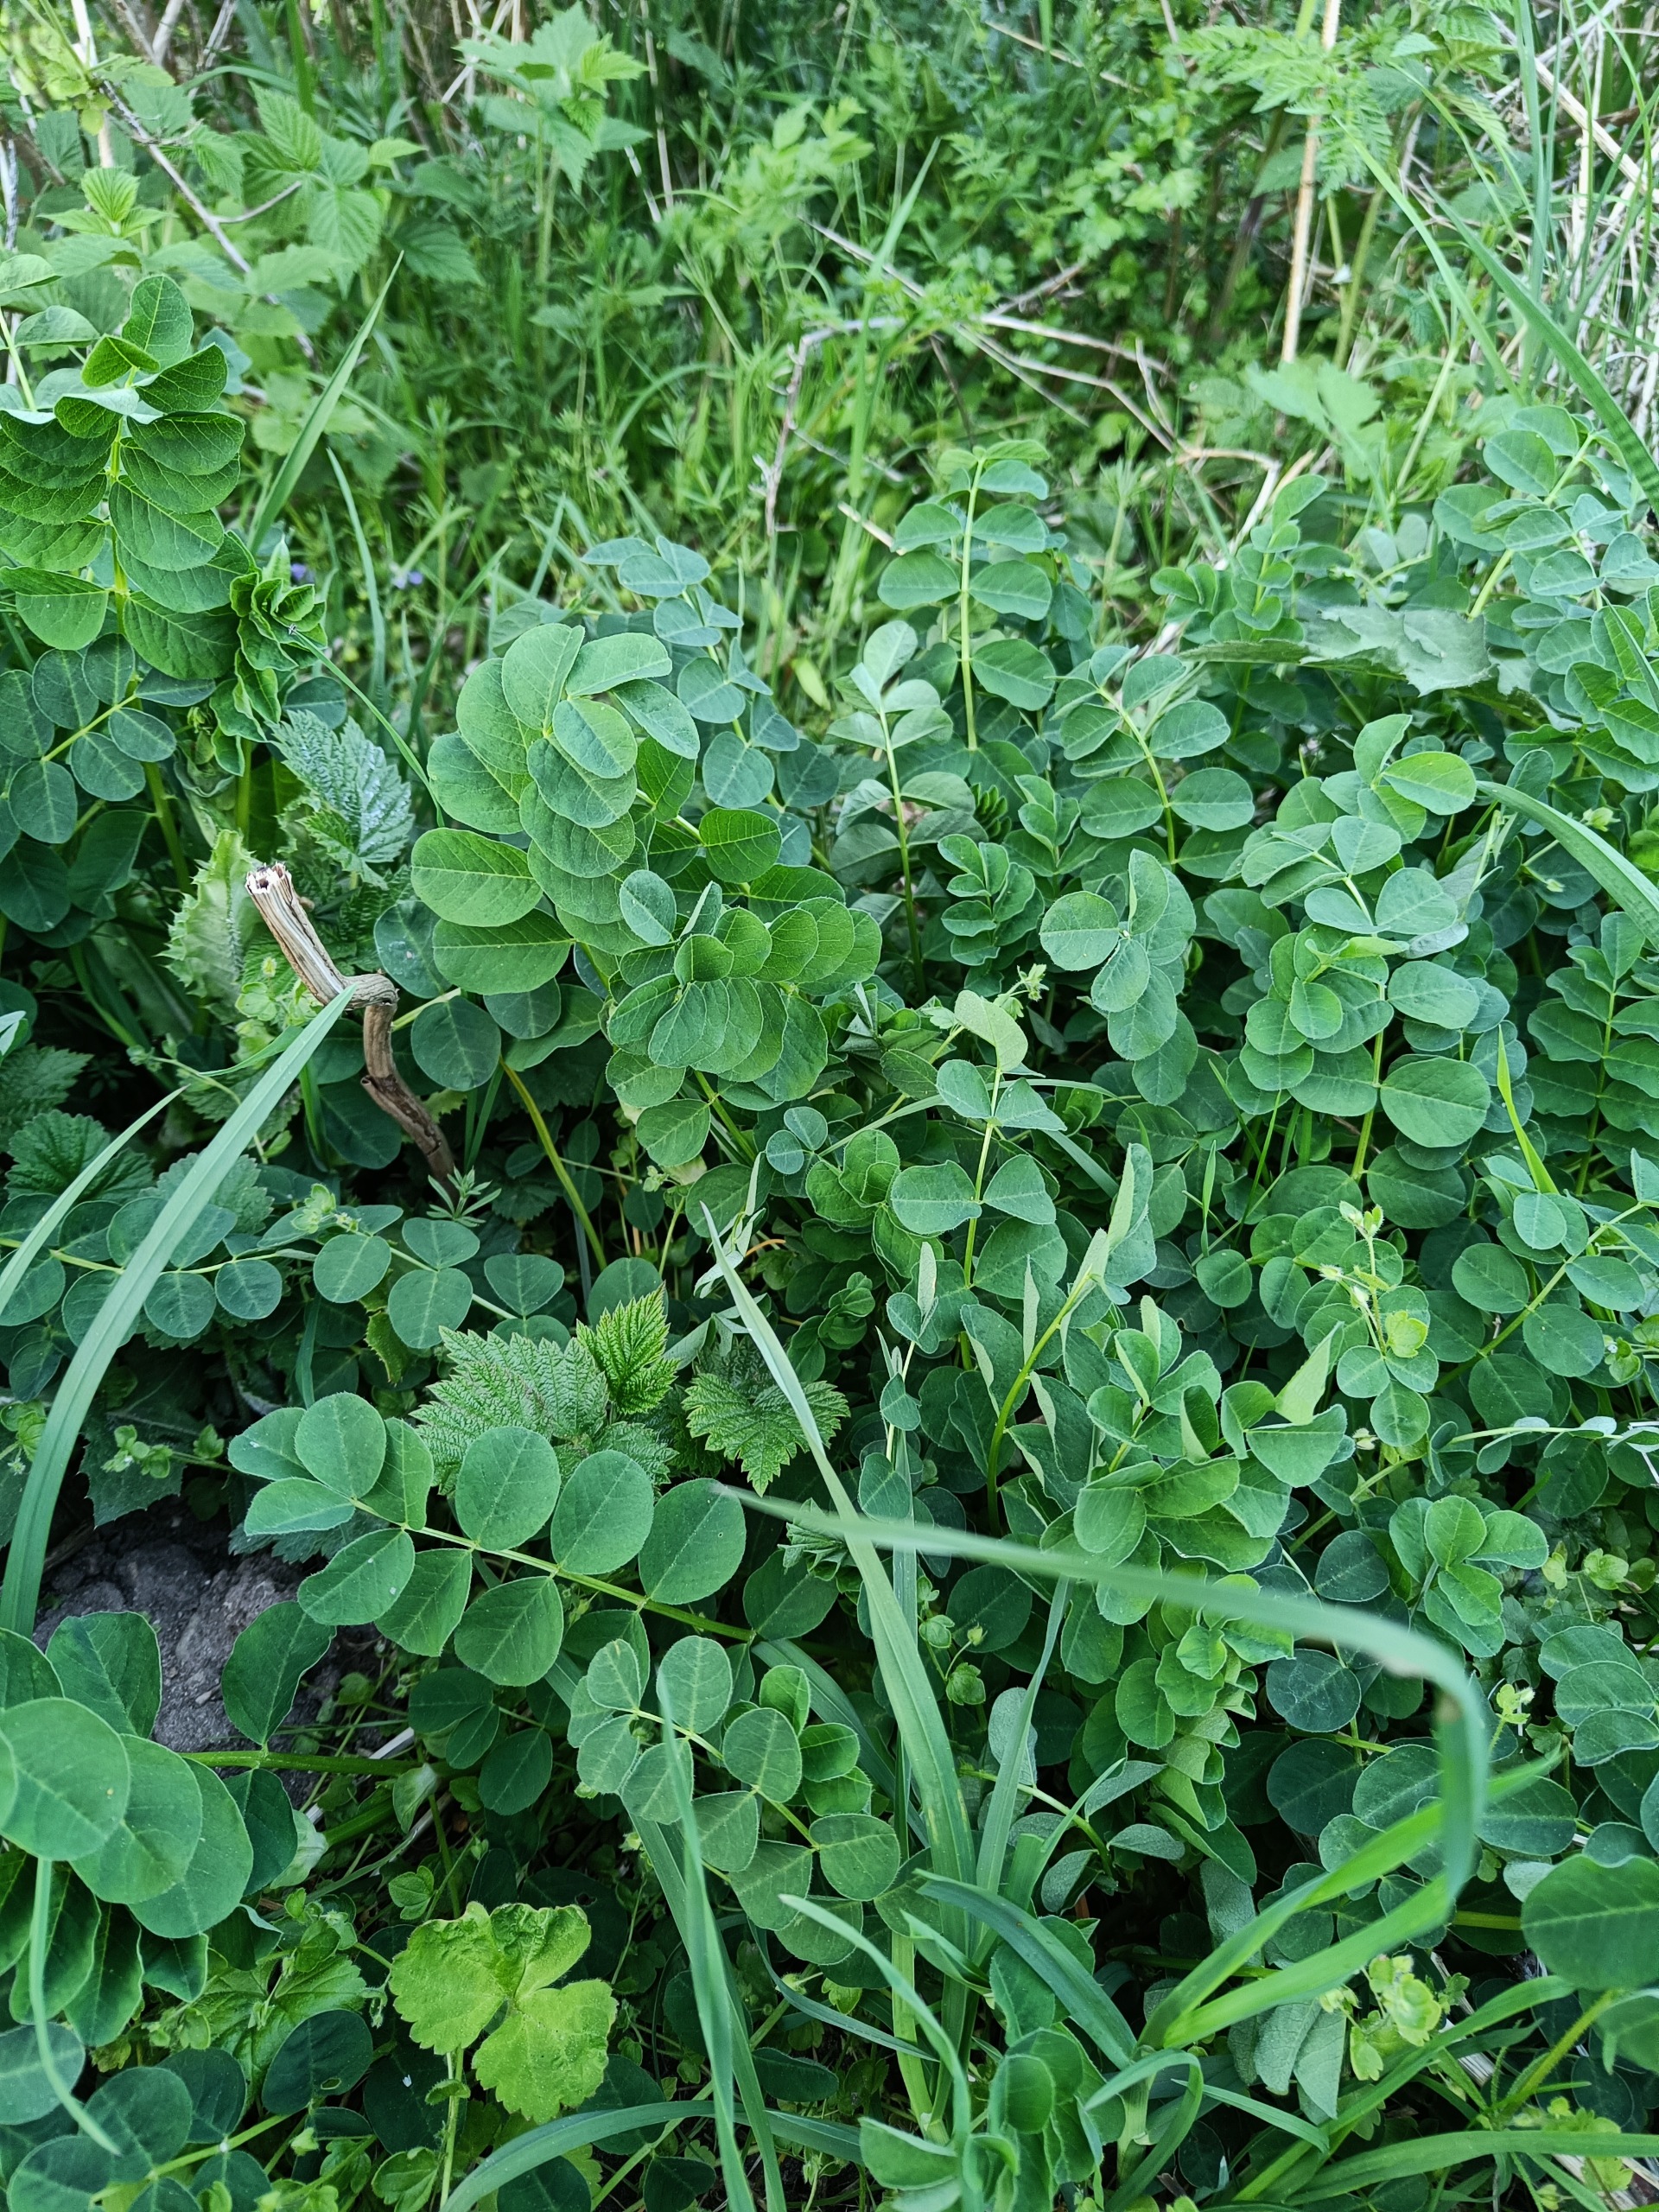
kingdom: Plantae
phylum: Tracheophyta
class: Magnoliopsida
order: Fabales
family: Fabaceae
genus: Astragalus
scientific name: Astragalus glycyphyllos
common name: Sød astragel
